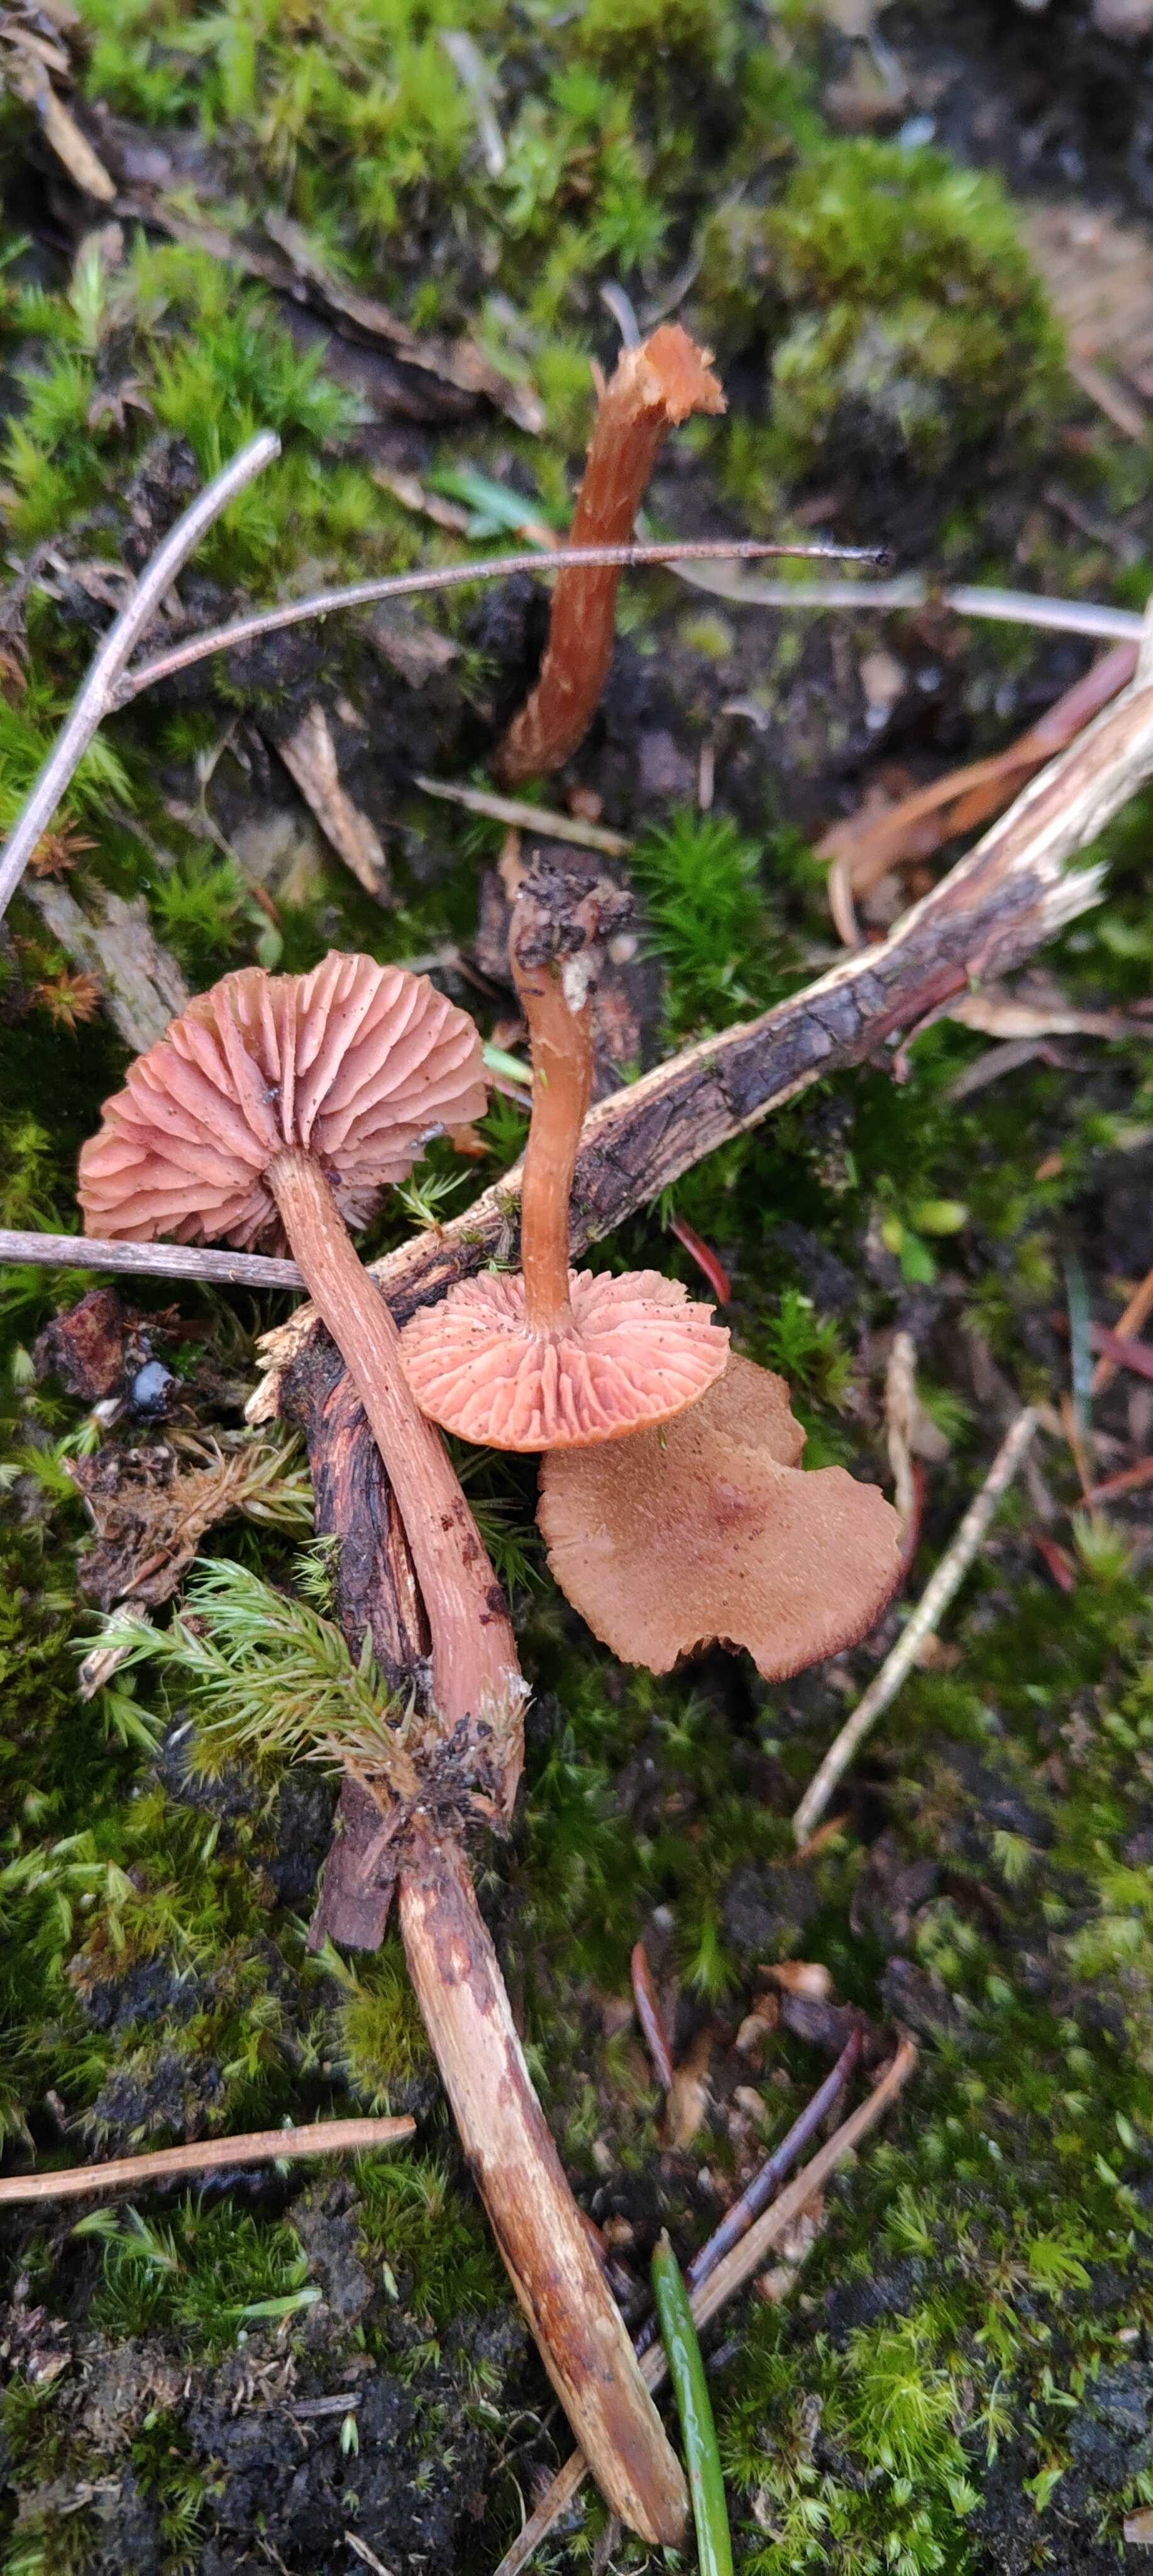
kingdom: Fungi
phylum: Basidiomycota
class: Agaricomycetes
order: Agaricales
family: Hydnangiaceae
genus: Laccaria
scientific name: Laccaria laccata
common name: rød ametysthat
